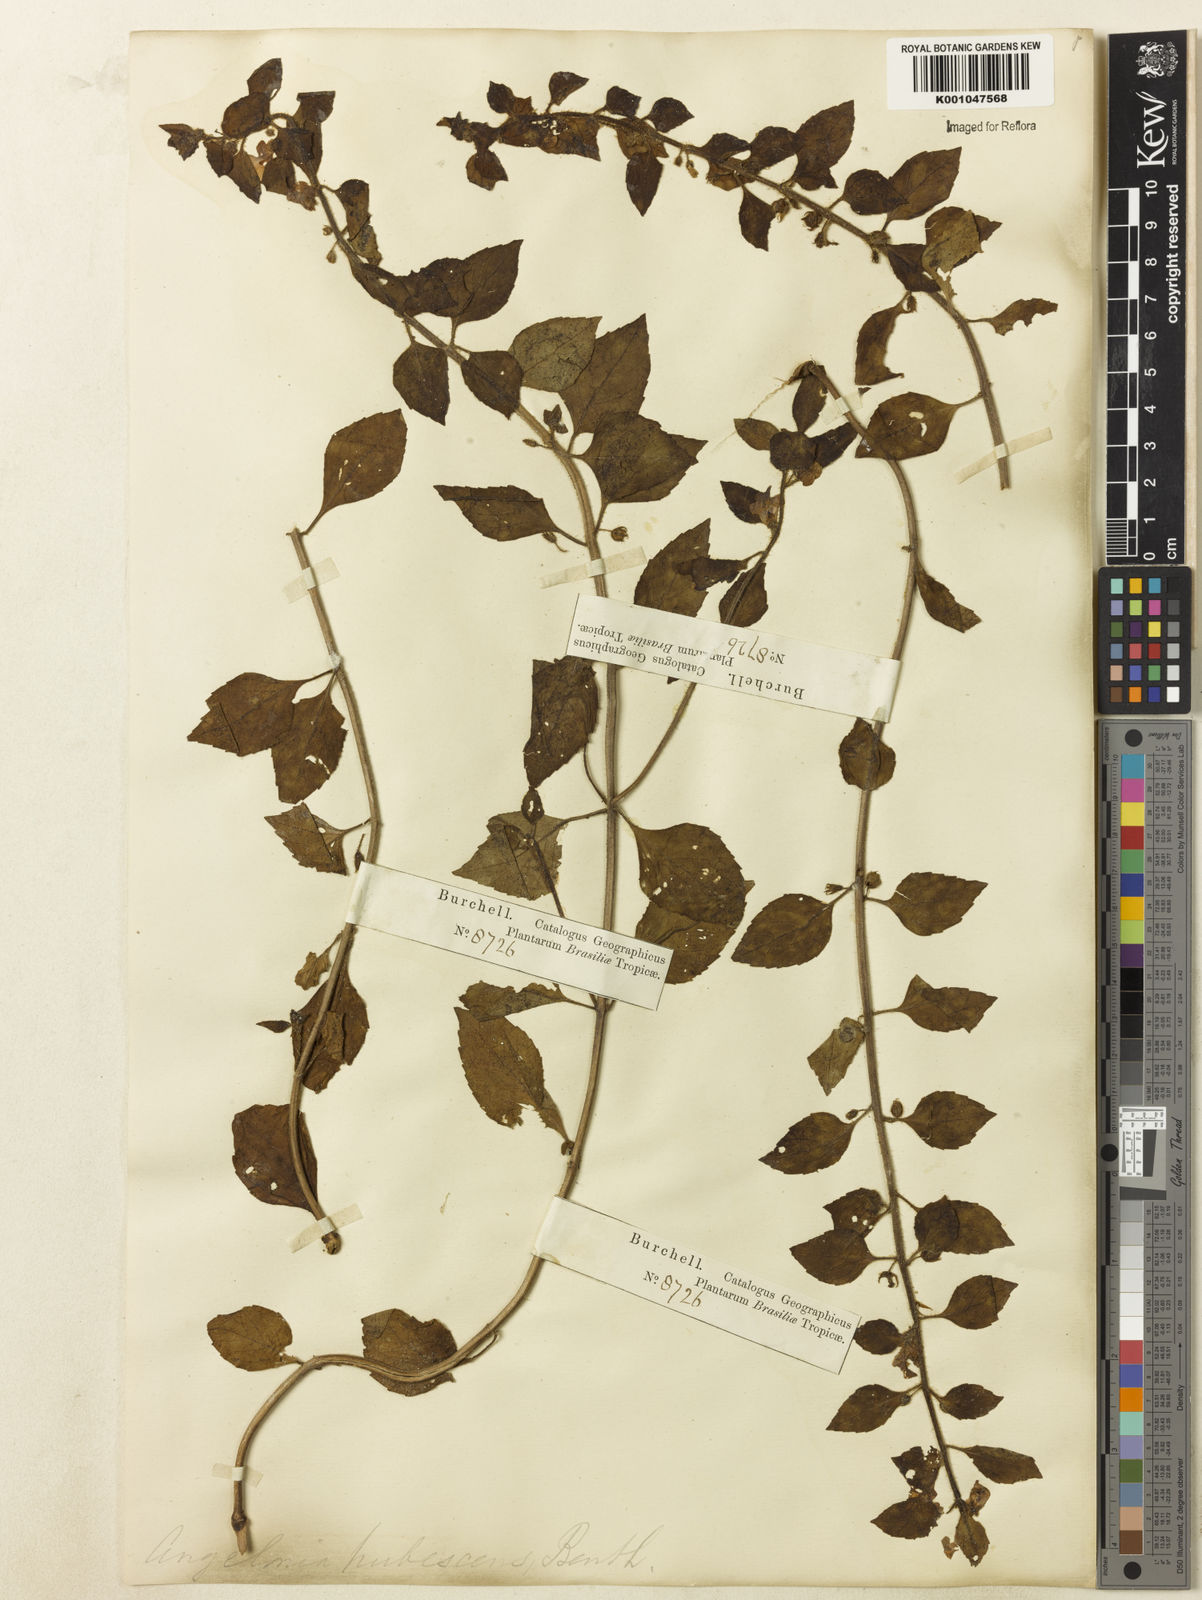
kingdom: Plantae
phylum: Tracheophyta
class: Magnoliopsida
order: Lamiales
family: Plantaginaceae
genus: Angelonia
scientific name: Angelonia pubescens
